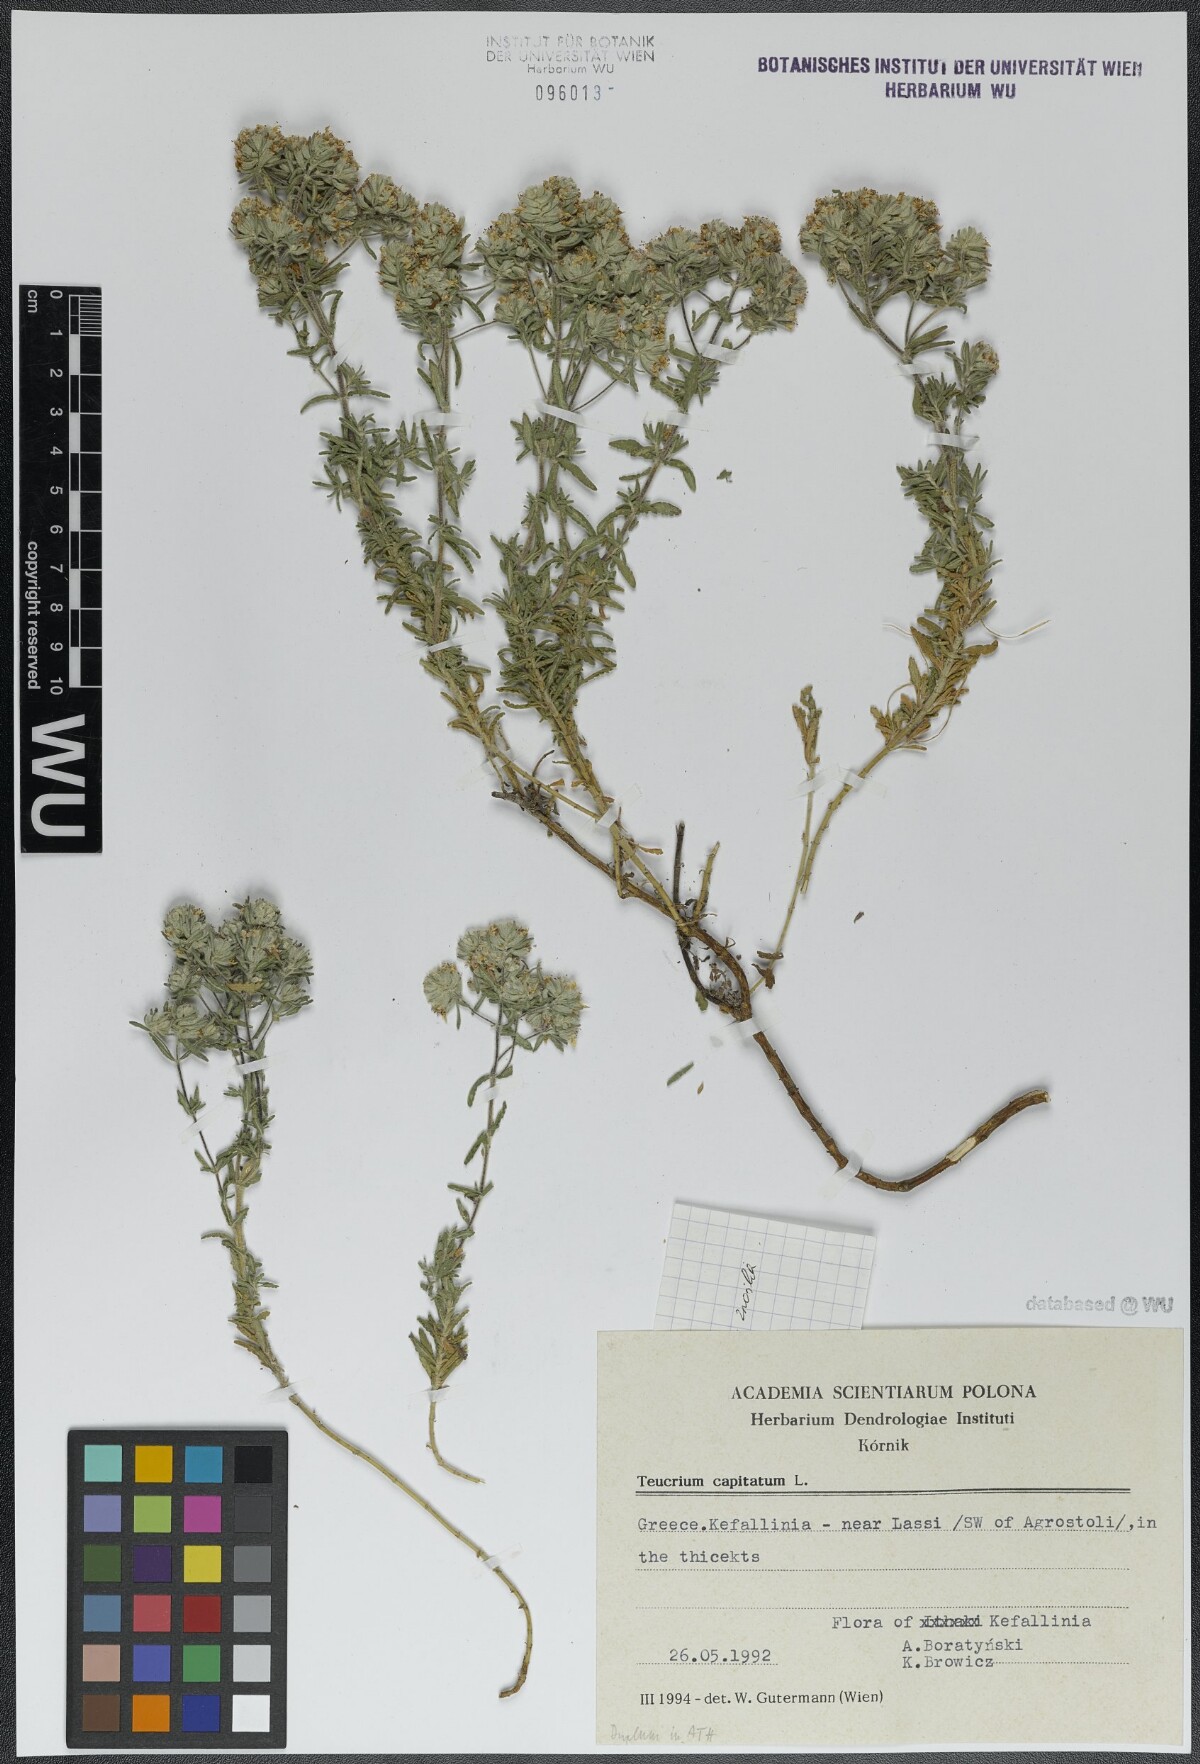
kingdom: Plantae
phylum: Tracheophyta
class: Magnoliopsida
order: Lamiales
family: Lamiaceae
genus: Teucrium
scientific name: Teucrium capitatum
